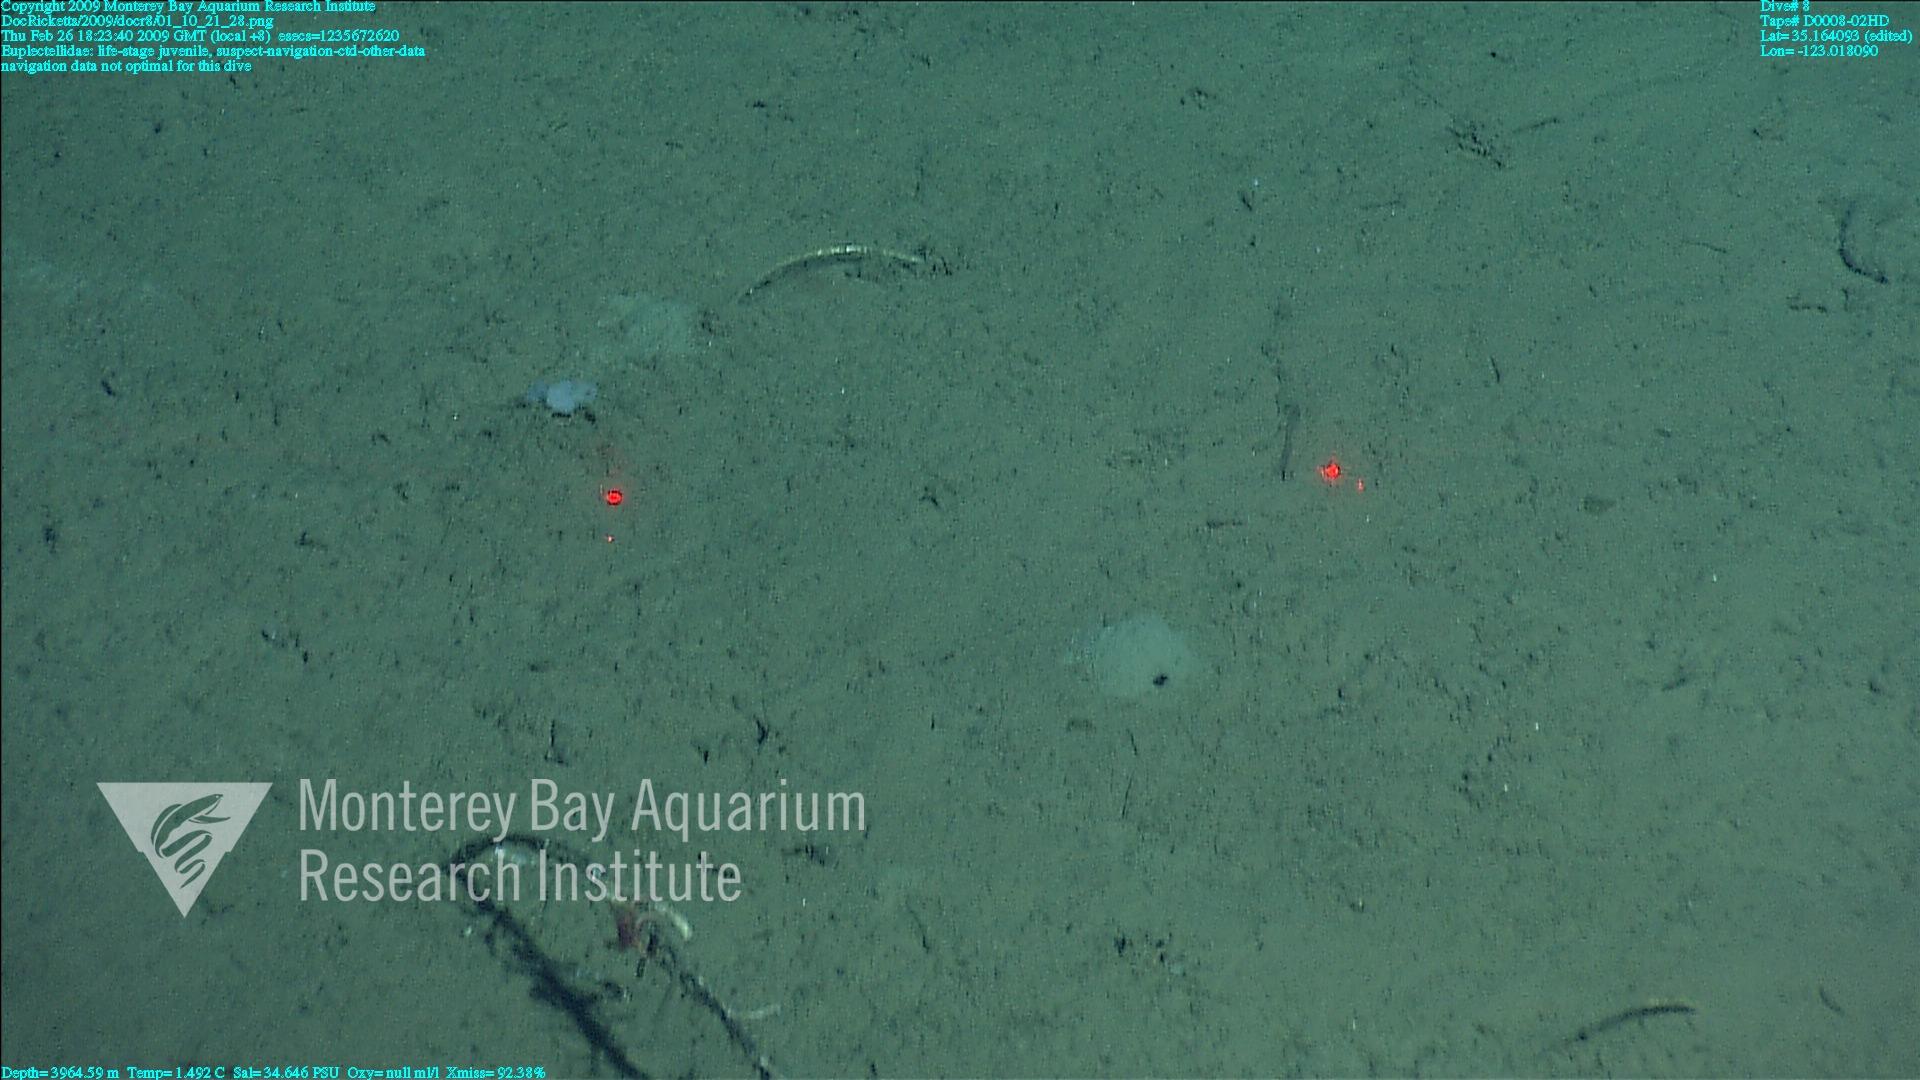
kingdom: Animalia
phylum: Porifera
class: Hexactinellida
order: Lyssacinosida
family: Euplectellidae
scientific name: Euplectellidae
